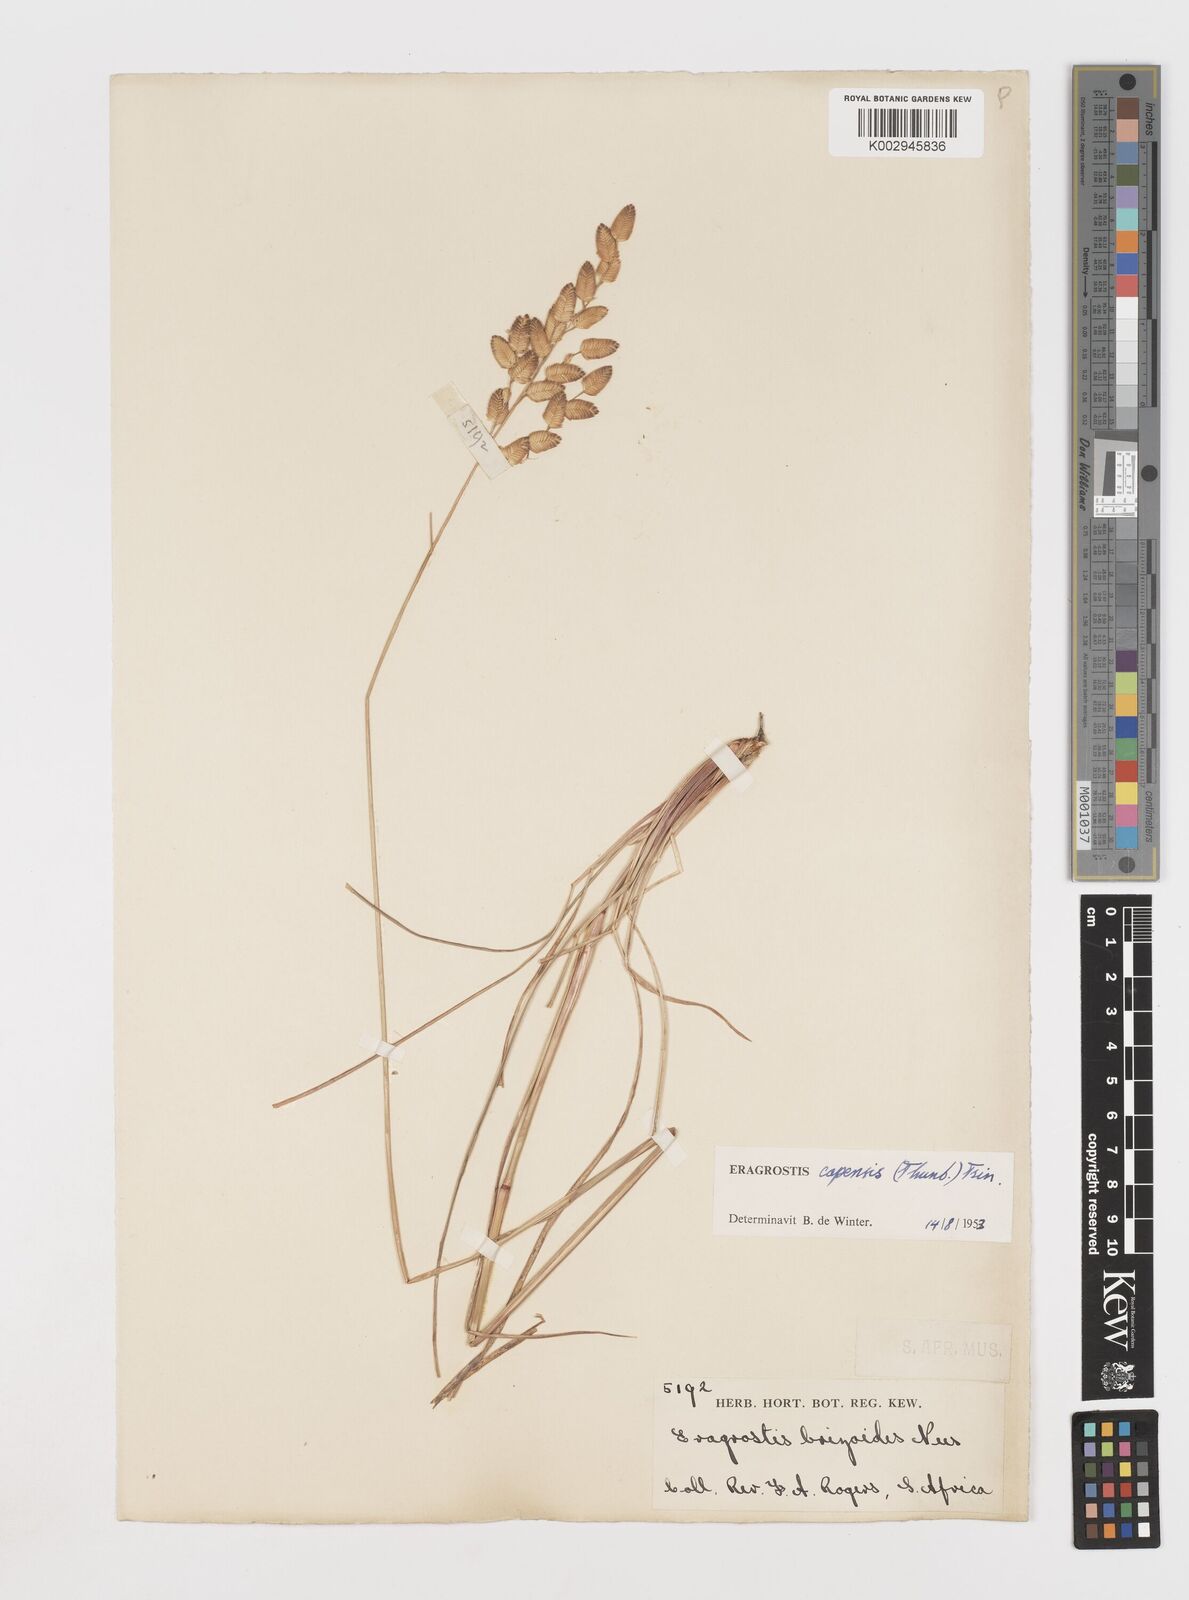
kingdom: Plantae
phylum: Tracheophyta
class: Liliopsida
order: Poales
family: Poaceae
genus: Eragrostis
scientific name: Eragrostis capensis
